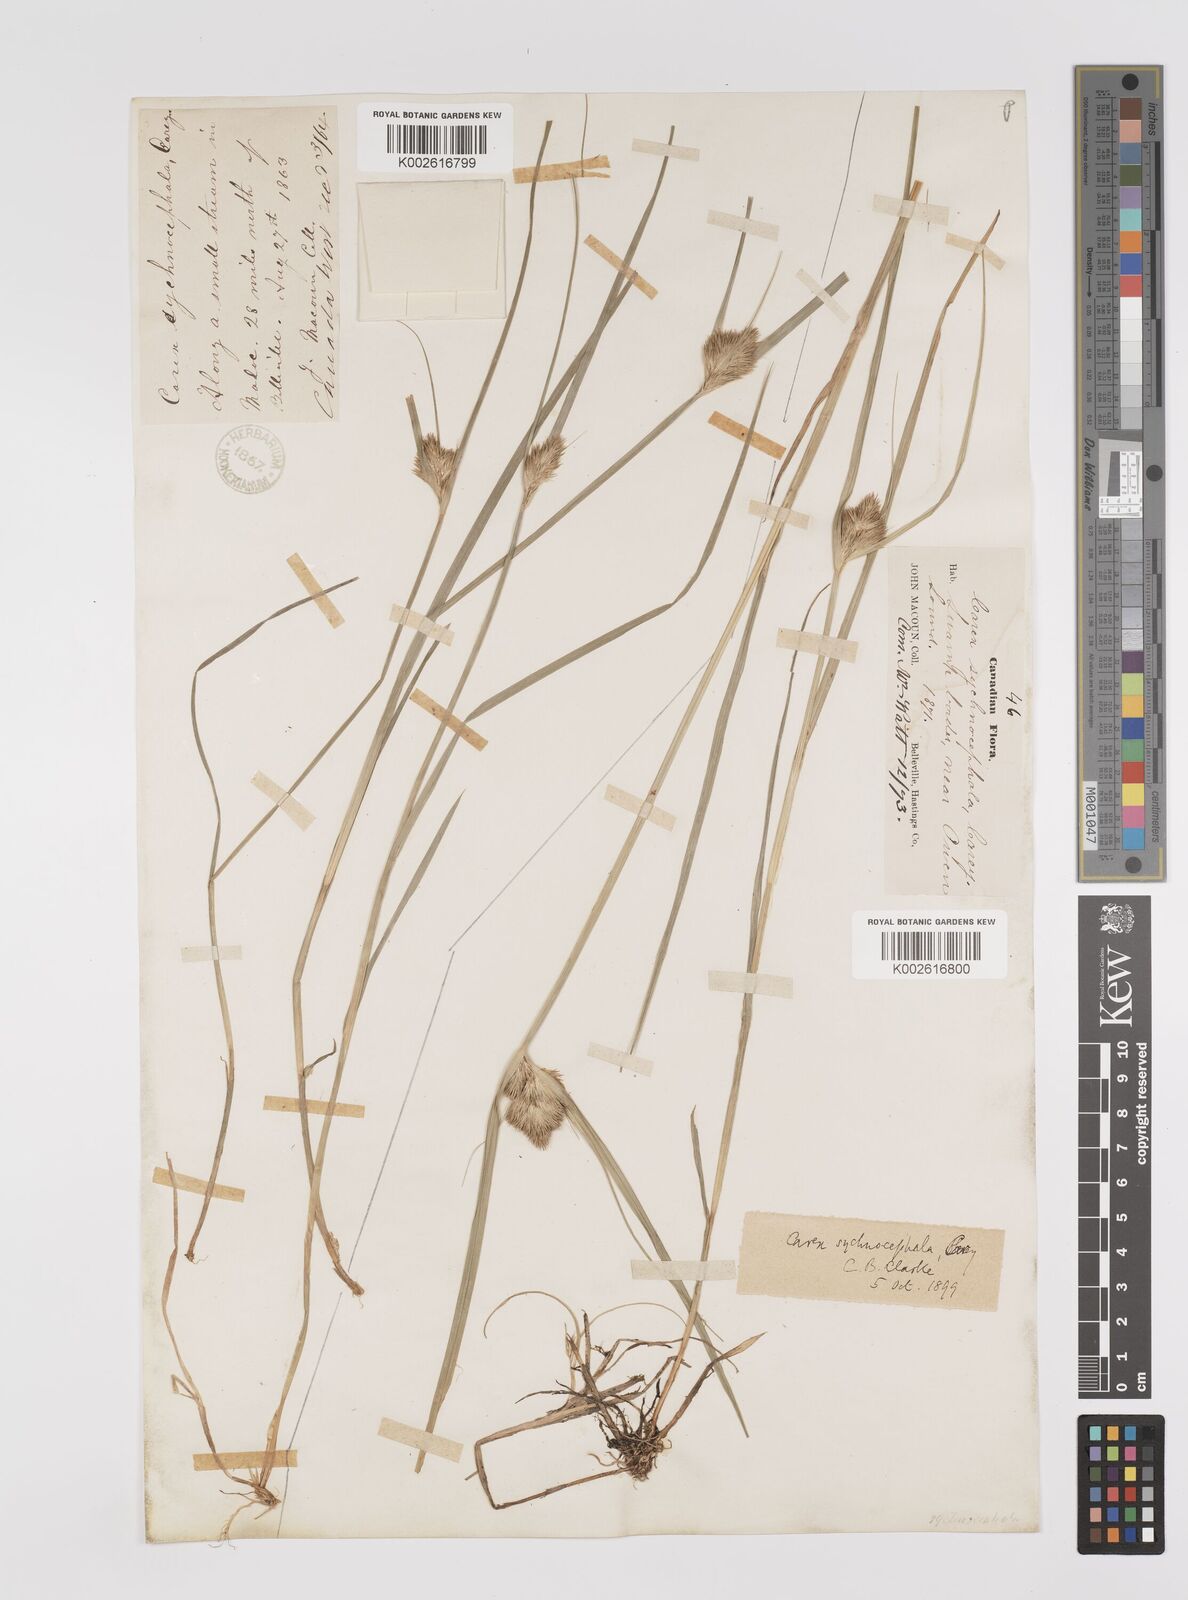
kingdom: Plantae
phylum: Tracheophyta
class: Liliopsida
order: Poales
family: Cyperaceae
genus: Carex
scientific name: Carex sychnocephala
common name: Dense long-beaked sedge
